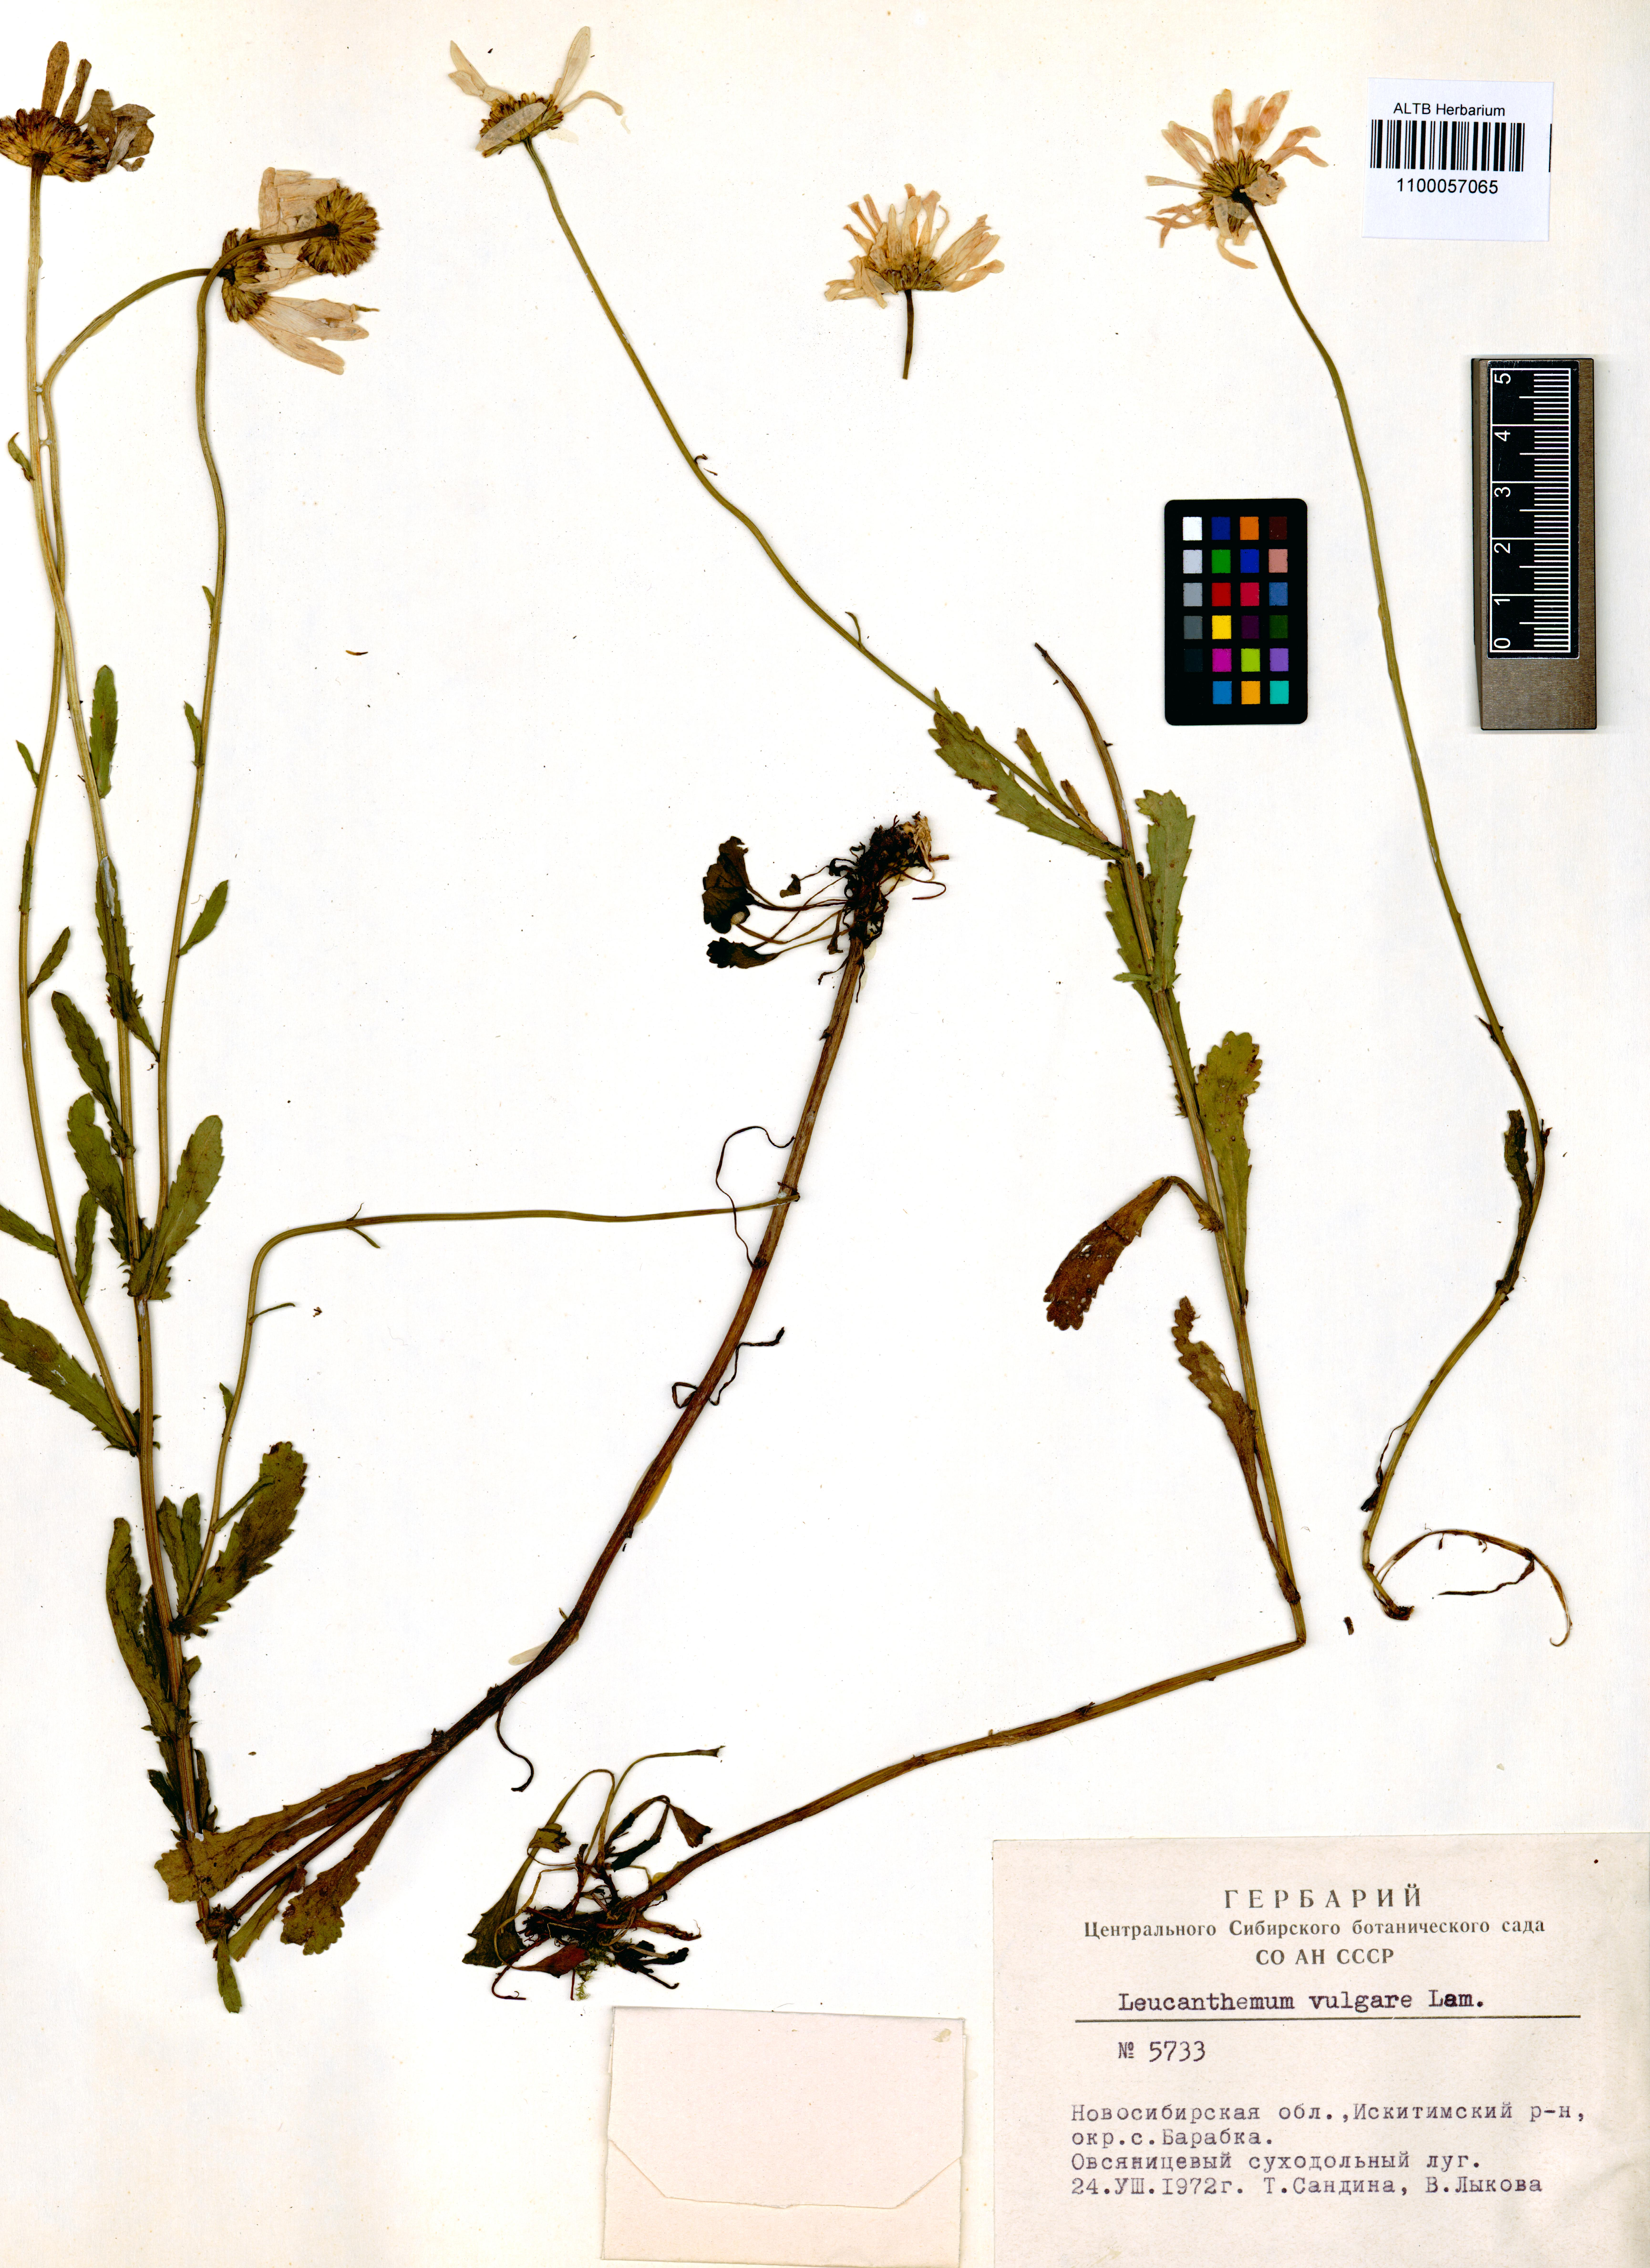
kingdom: Plantae
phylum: Tracheophyta
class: Magnoliopsida
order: Asterales
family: Asteraceae
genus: Leucanthemum
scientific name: Leucanthemum vulgare
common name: Oxeye daisy
